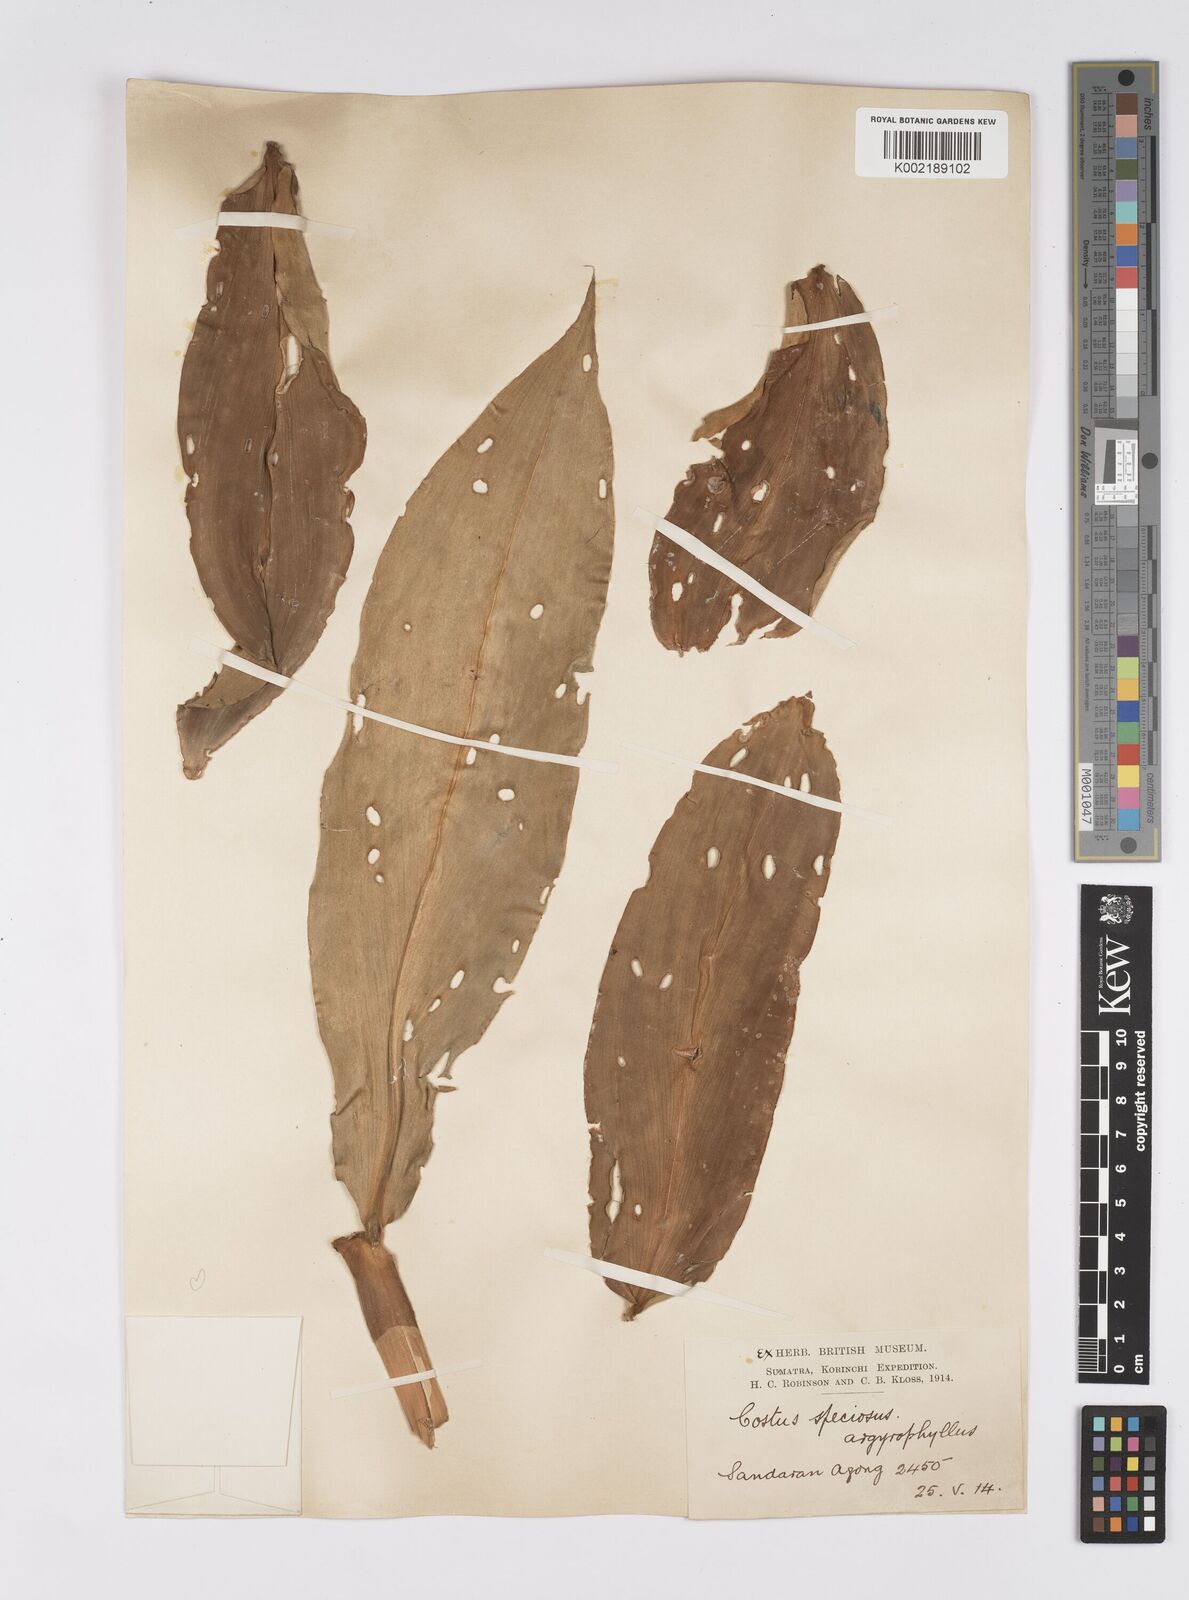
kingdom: Plantae
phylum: Tracheophyta
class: Liliopsida
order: Zingiberales
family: Costaceae
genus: Hellenia
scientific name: Hellenia speciosa
